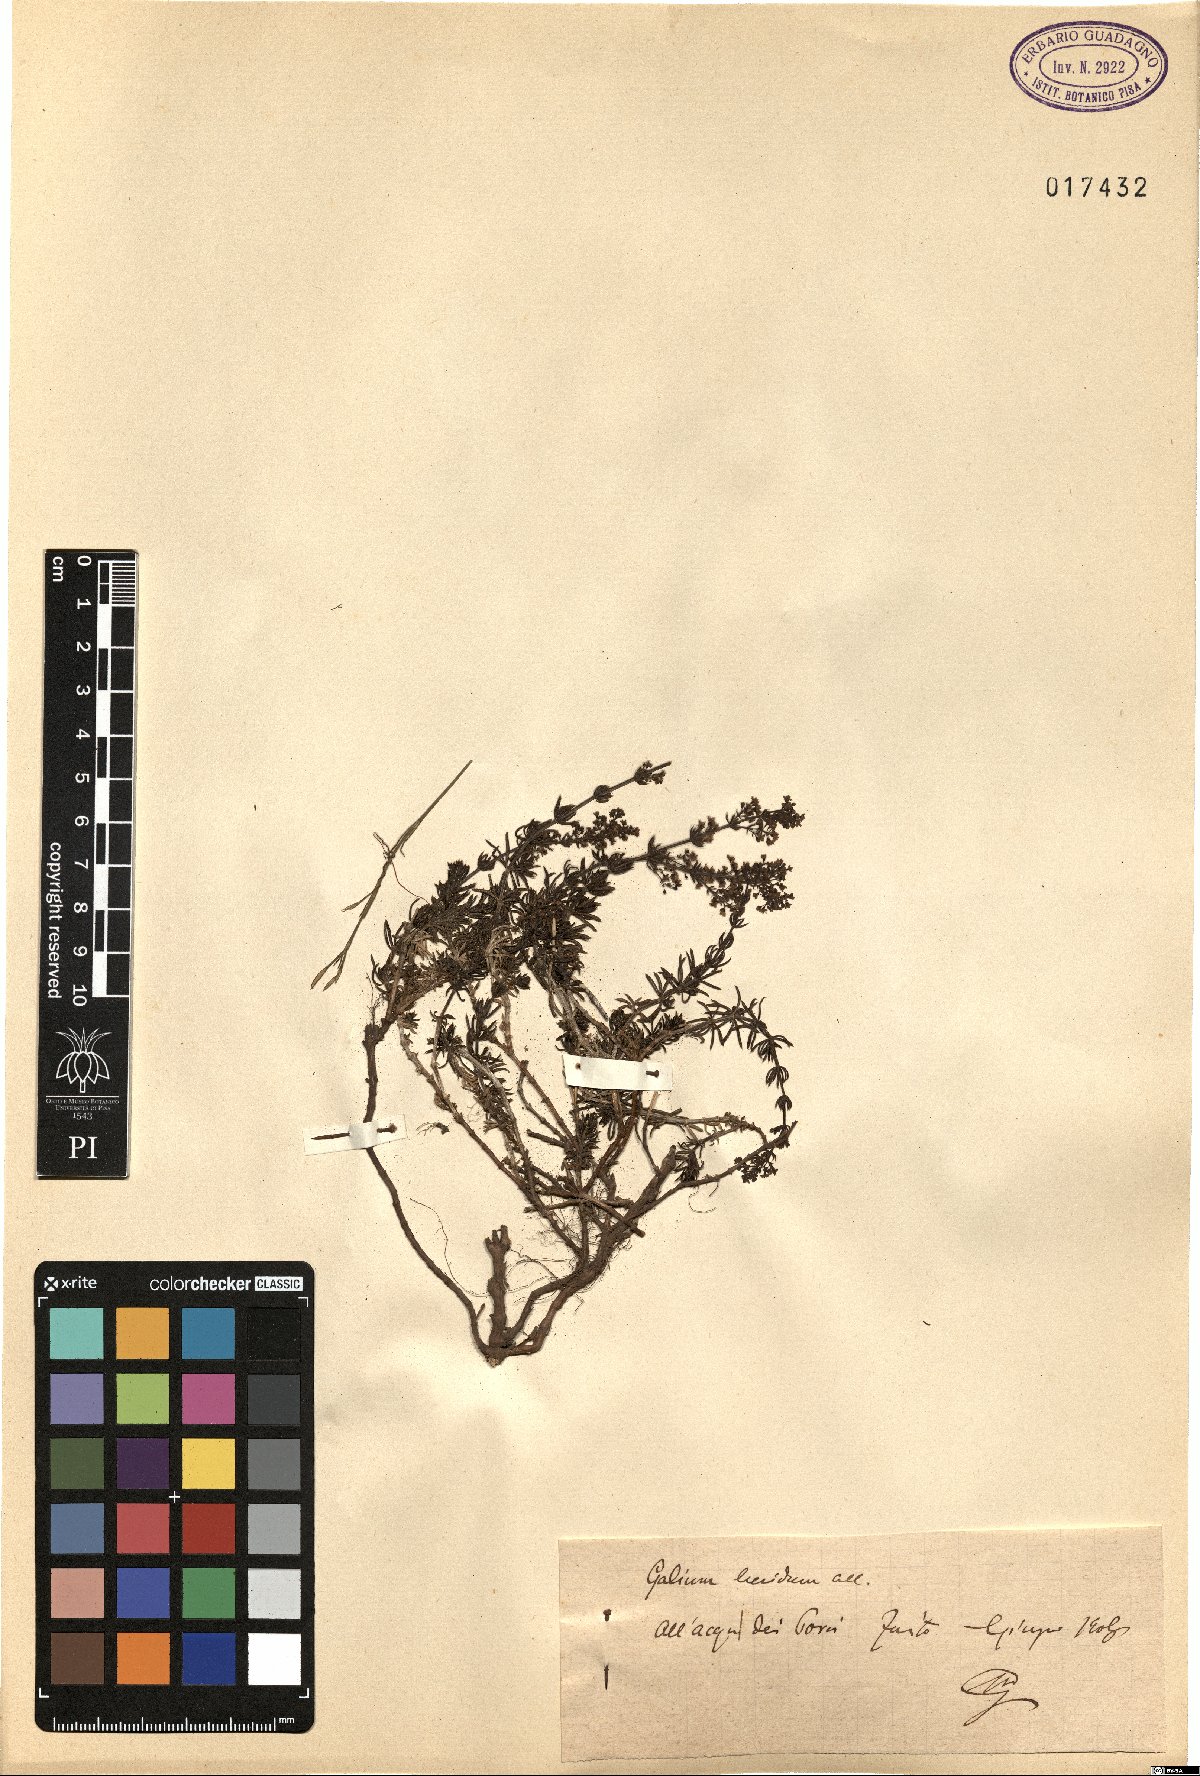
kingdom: Plantae
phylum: Tracheophyta
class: Magnoliopsida
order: Gentianales
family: Rubiaceae
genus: Galium
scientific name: Galium lucidum
